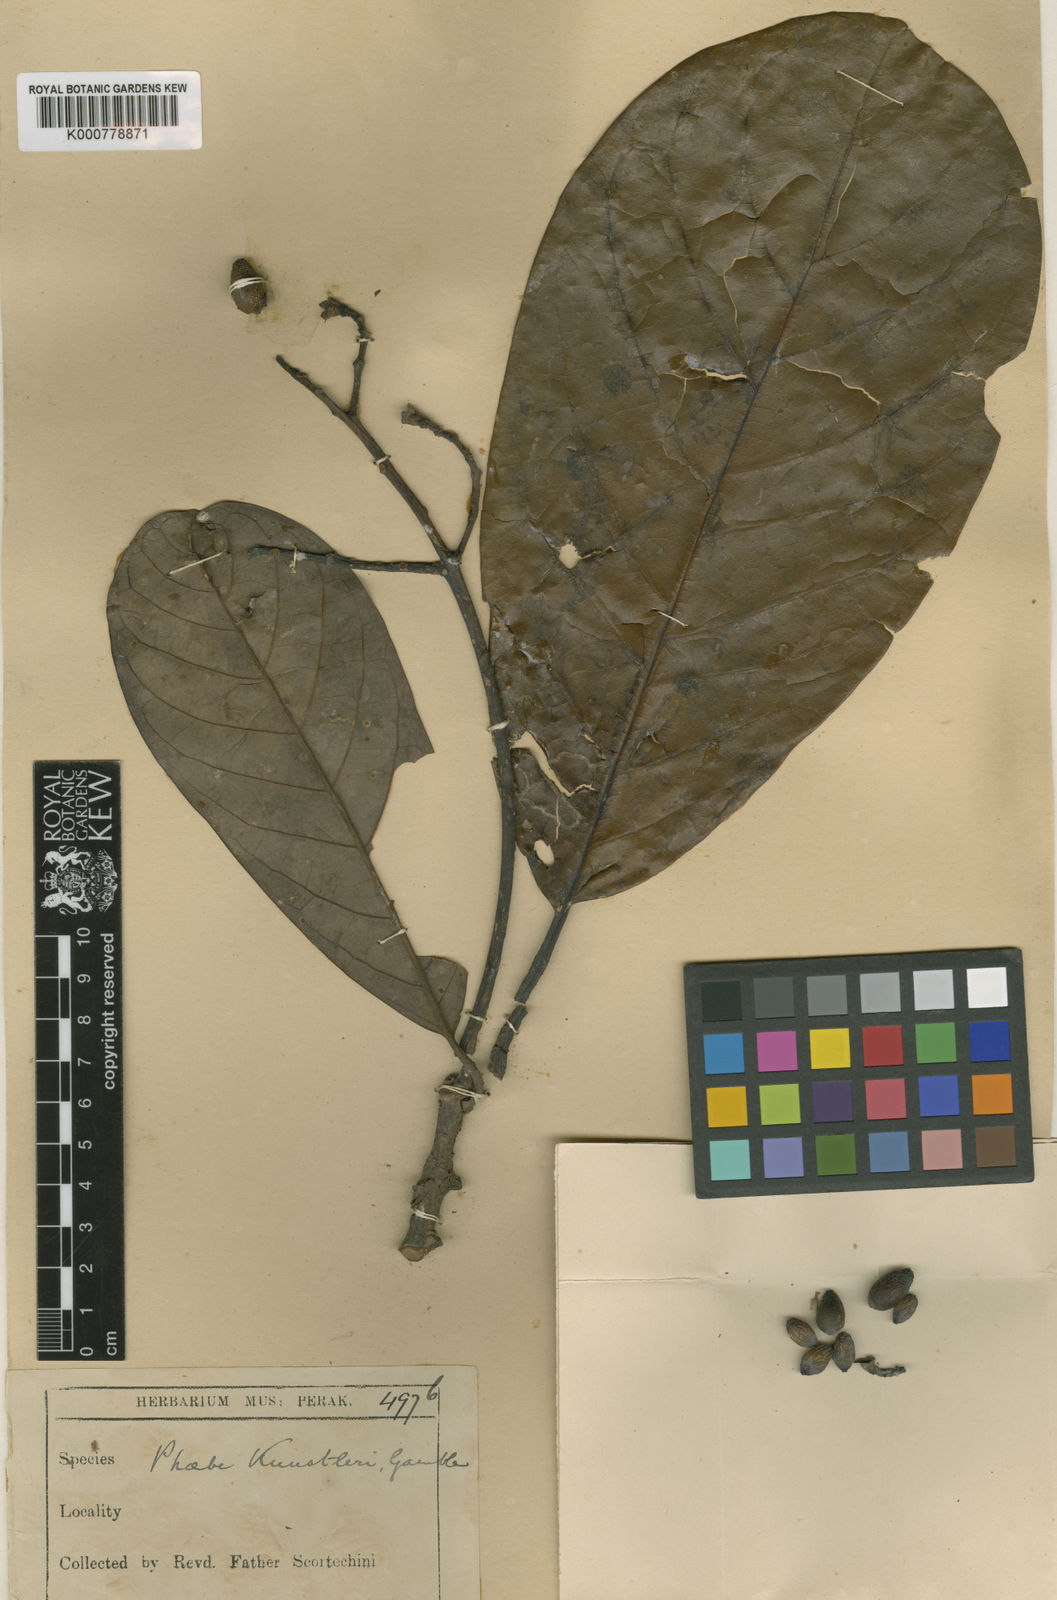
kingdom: Plantae
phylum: Tracheophyta
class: Magnoliopsida
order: Laurales
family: Lauraceae
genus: Phoebe
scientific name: Phoebe kunstleri
